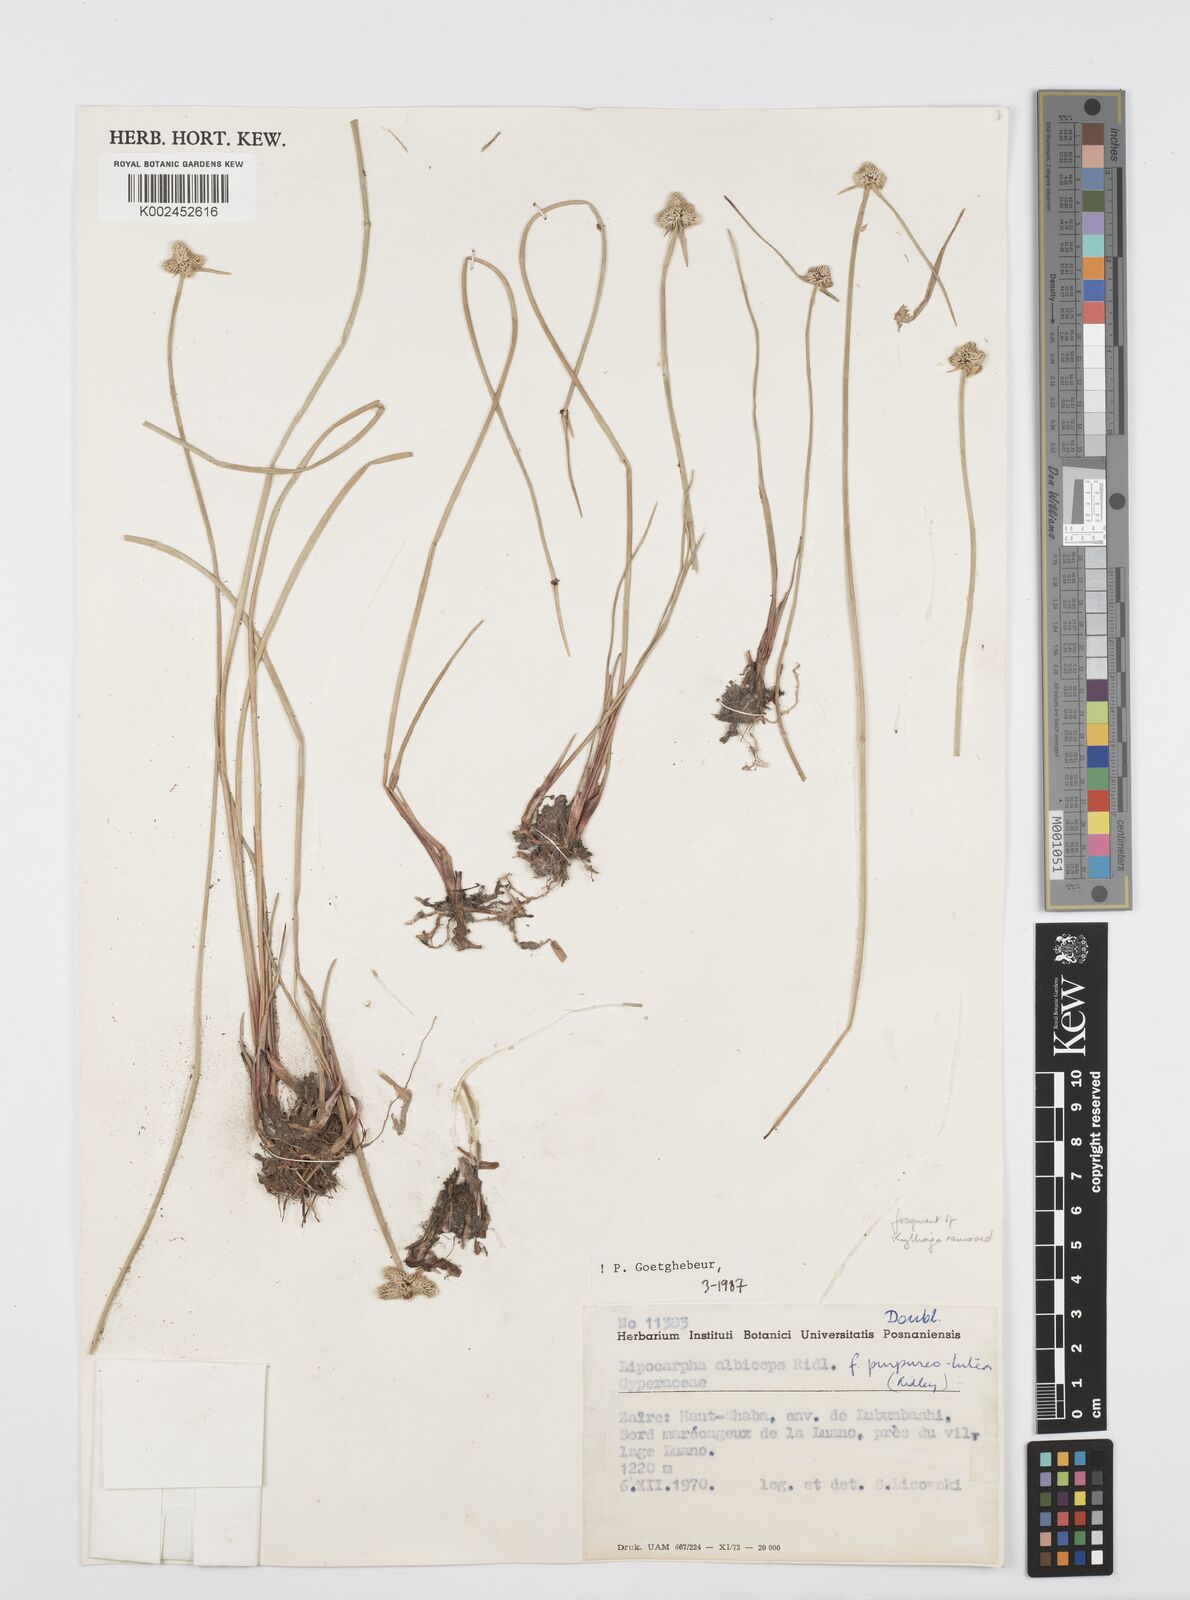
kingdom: Plantae
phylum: Tracheophyta
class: Liliopsida
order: Poales
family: Cyperaceae
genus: Cyperus
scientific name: Cyperus albiceps
